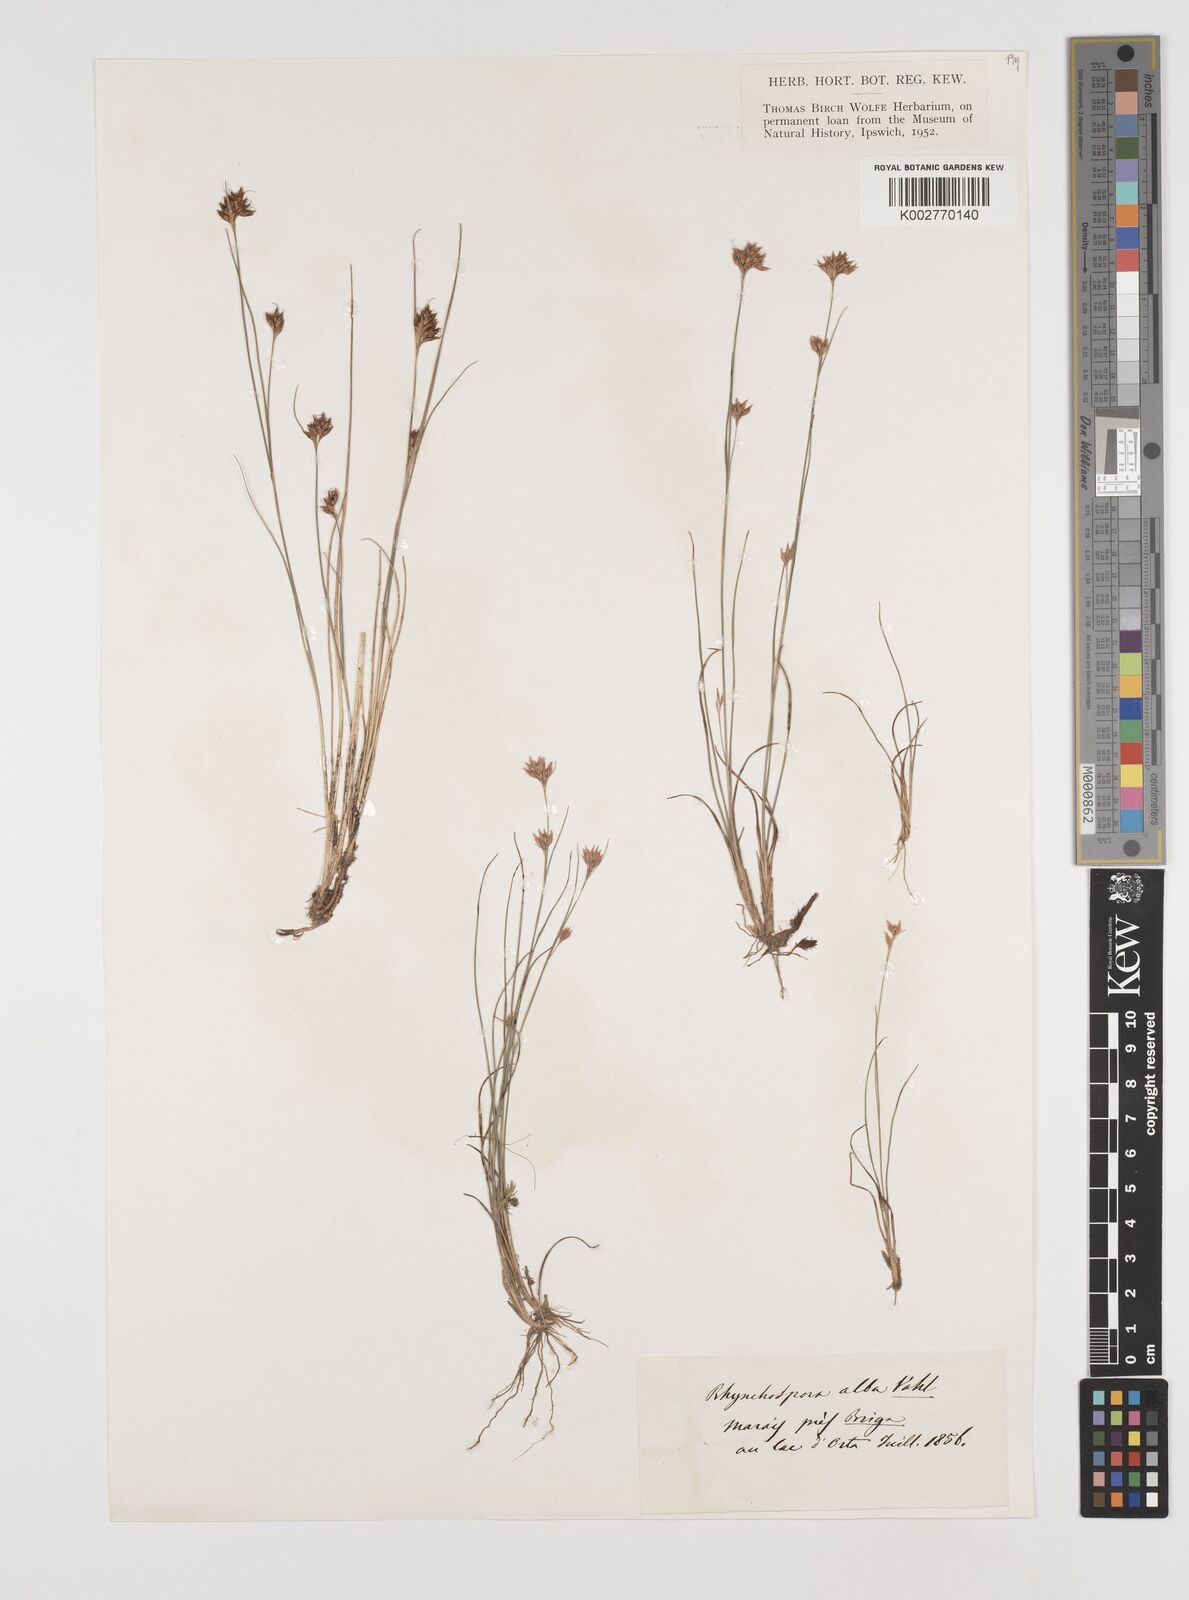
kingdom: Plantae
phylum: Tracheophyta
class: Liliopsida
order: Poales
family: Cyperaceae
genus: Rhynchospora
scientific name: Rhynchospora alba
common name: White beak-sedge
